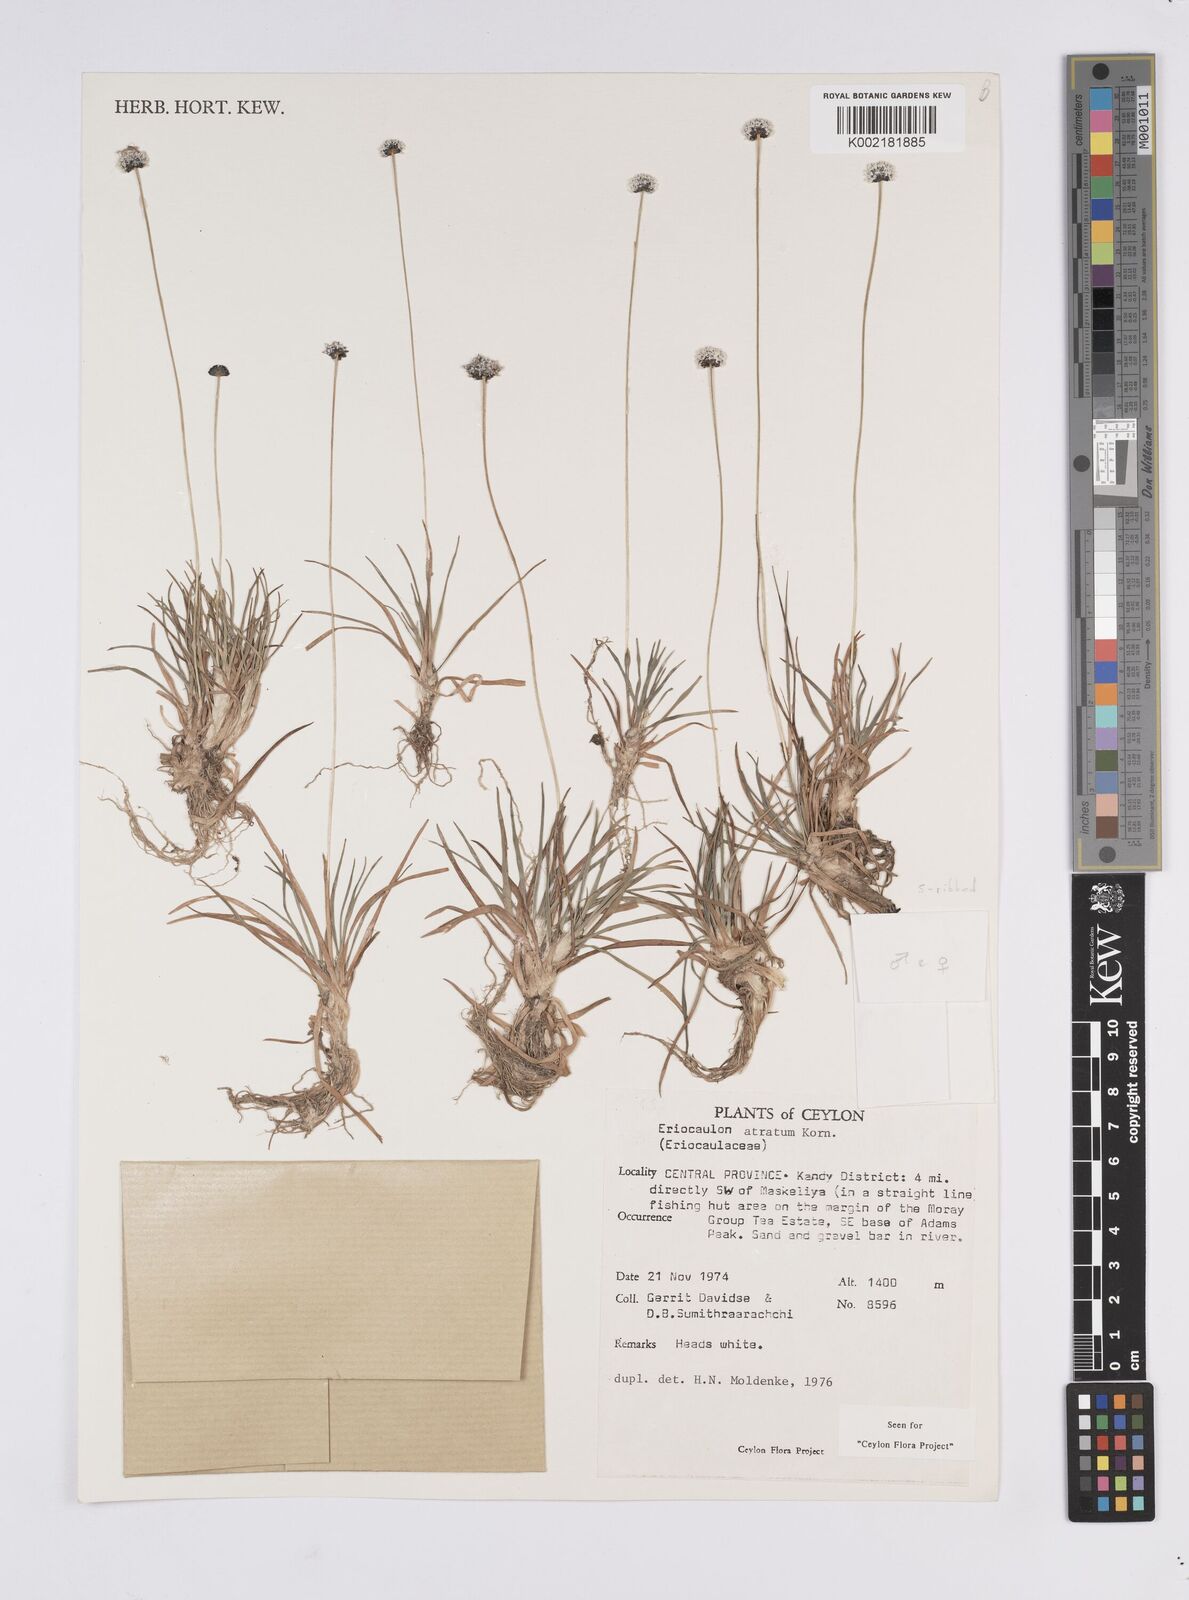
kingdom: Plantae
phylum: Tracheophyta
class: Liliopsida
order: Poales
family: Eriocaulaceae
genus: Eriocaulon
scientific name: Eriocaulon atratum
